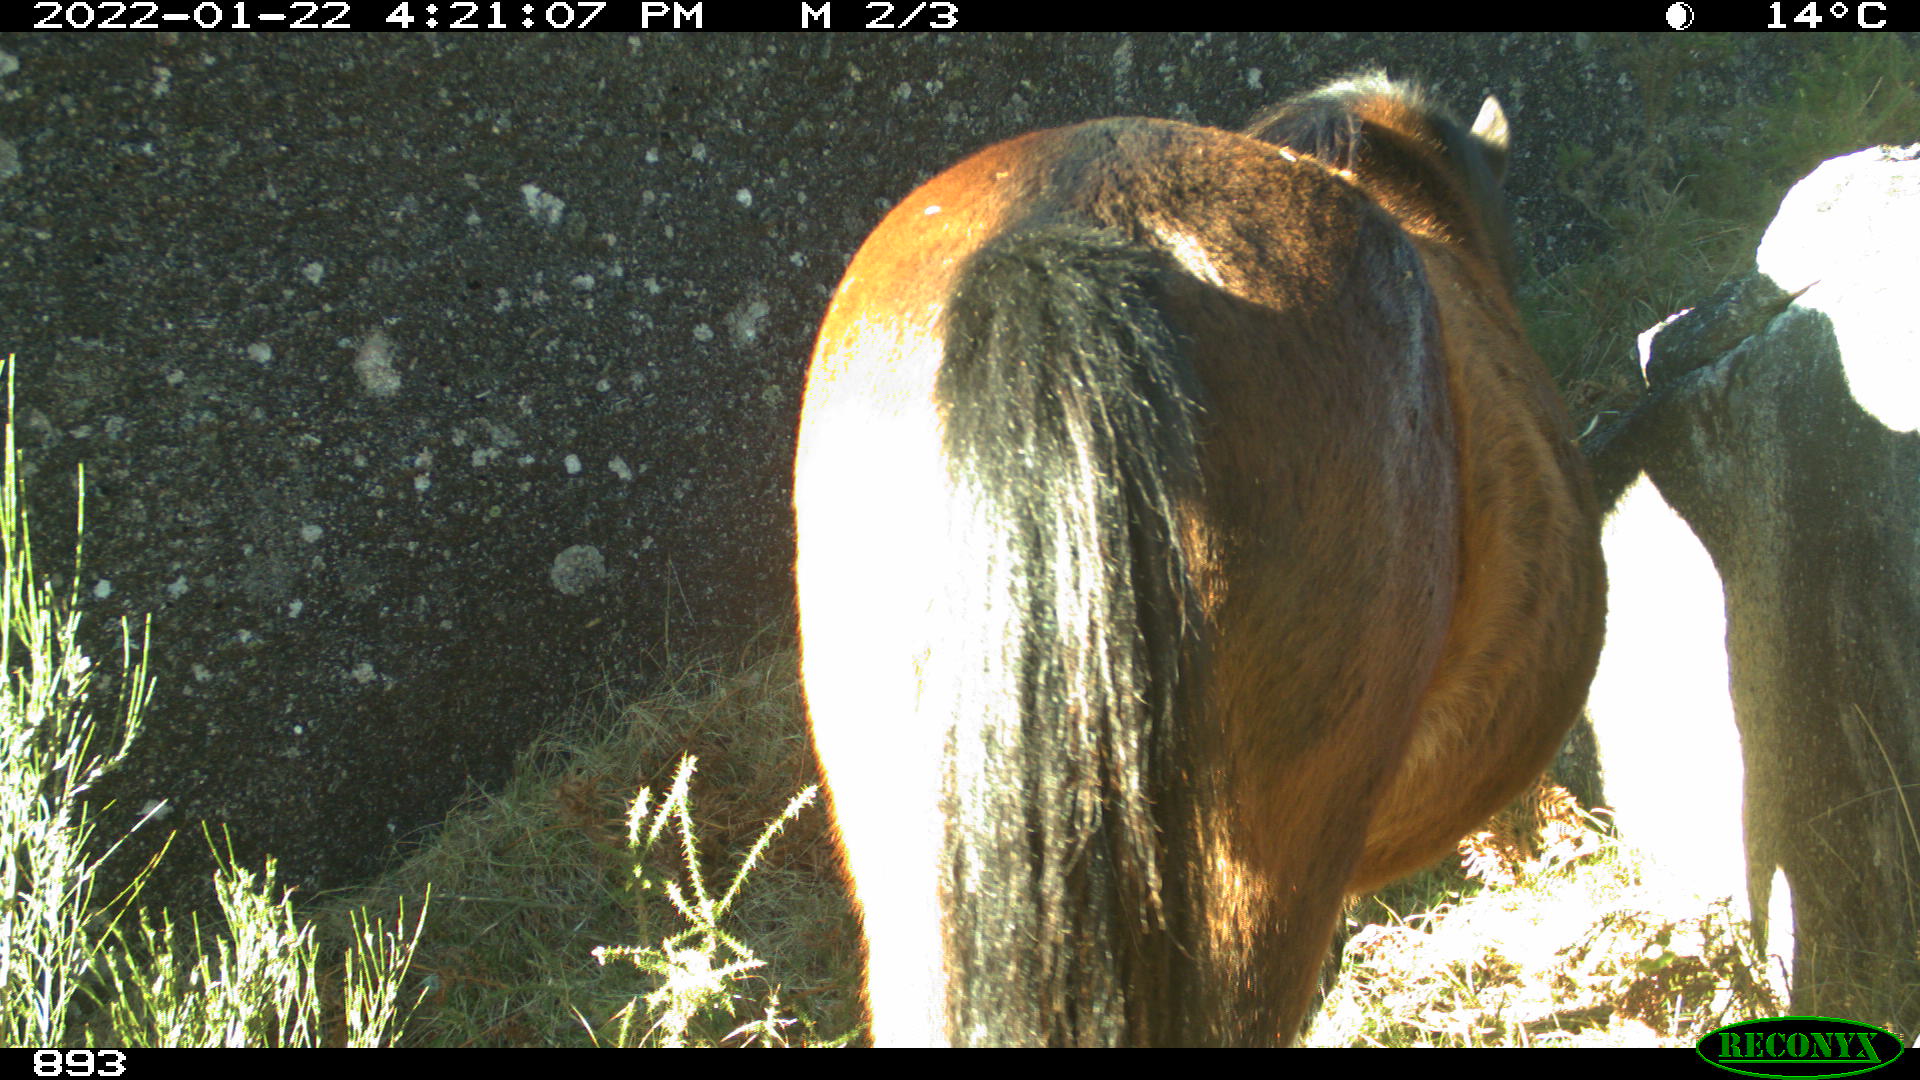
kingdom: Animalia
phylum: Chordata
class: Mammalia
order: Perissodactyla
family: Equidae
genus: Equus
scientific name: Equus caballus
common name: Horse
